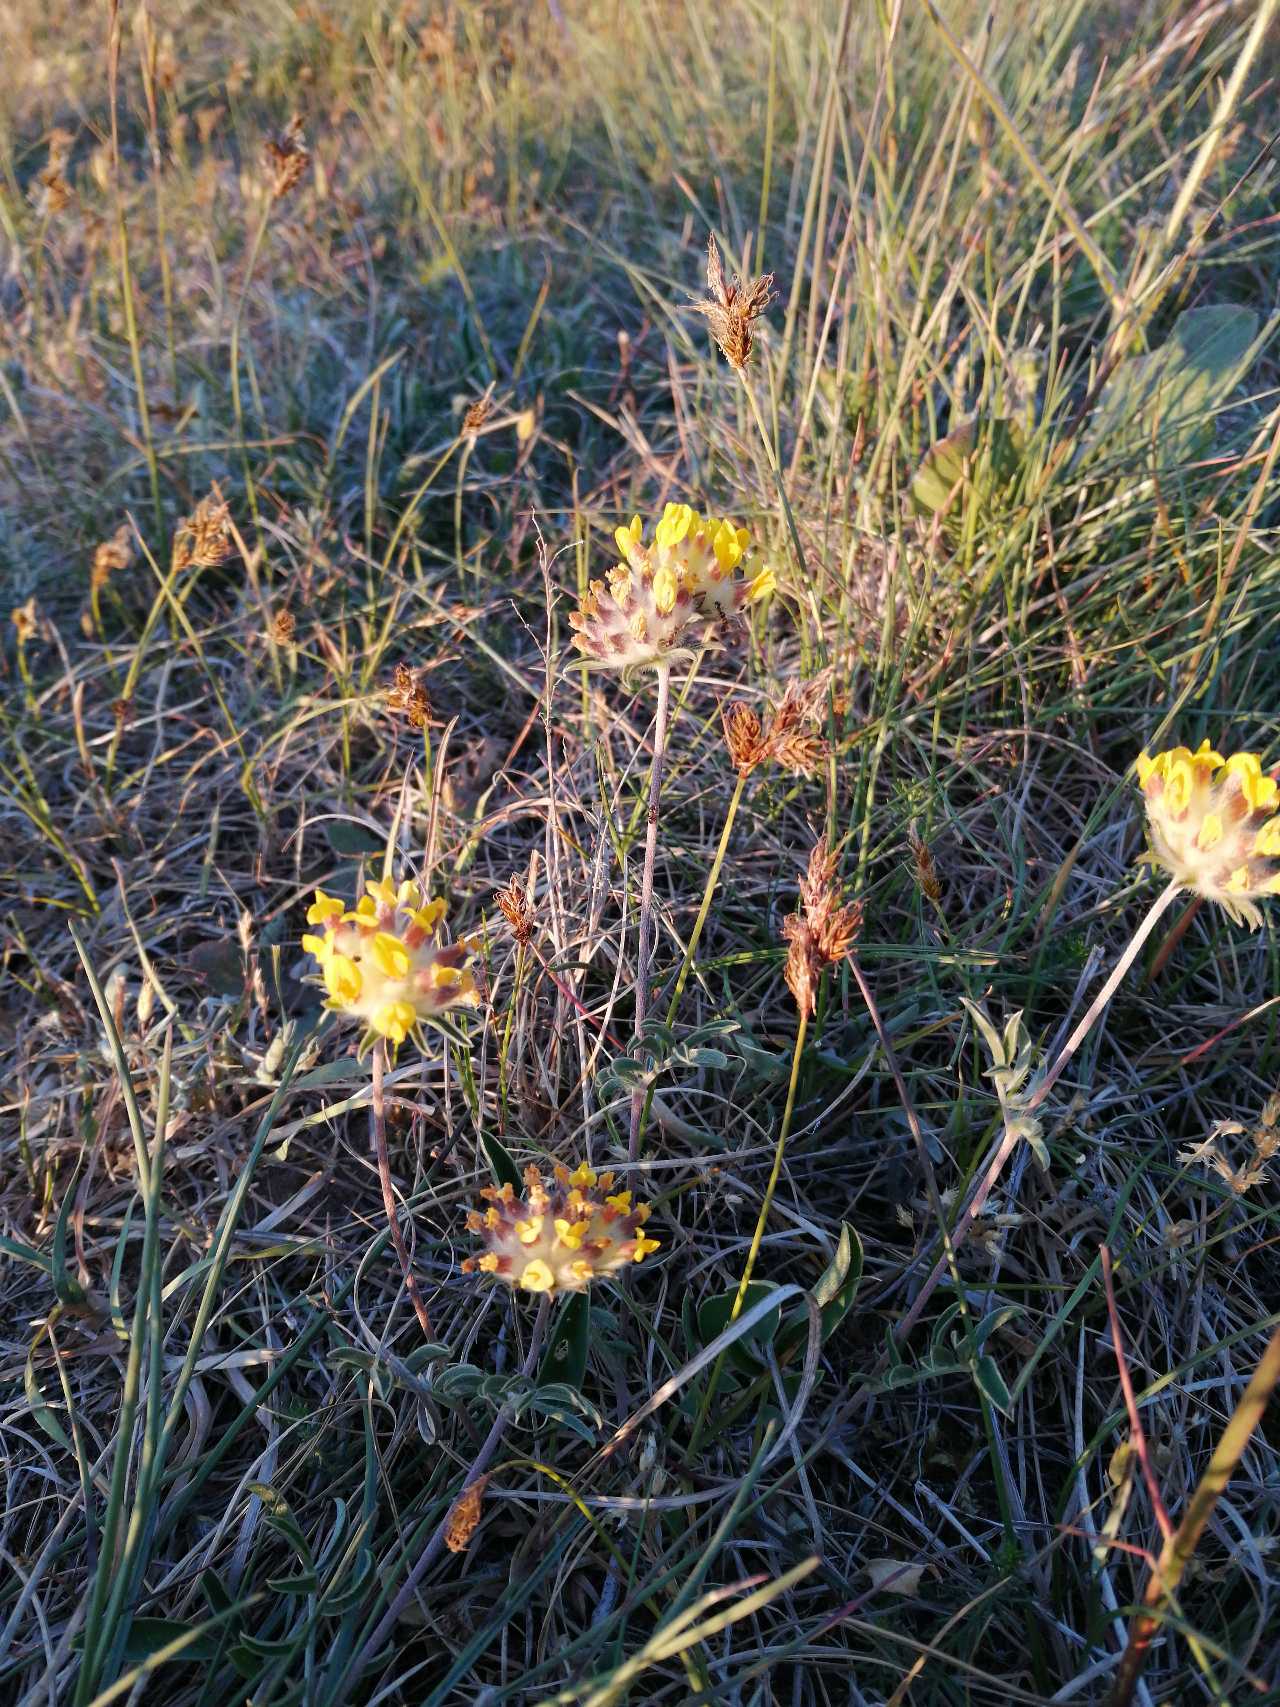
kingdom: Plantae
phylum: Tracheophyta
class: Magnoliopsida
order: Fabales
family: Fabaceae
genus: Anthyllis
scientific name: Anthyllis vulneraria
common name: Rundbælg
